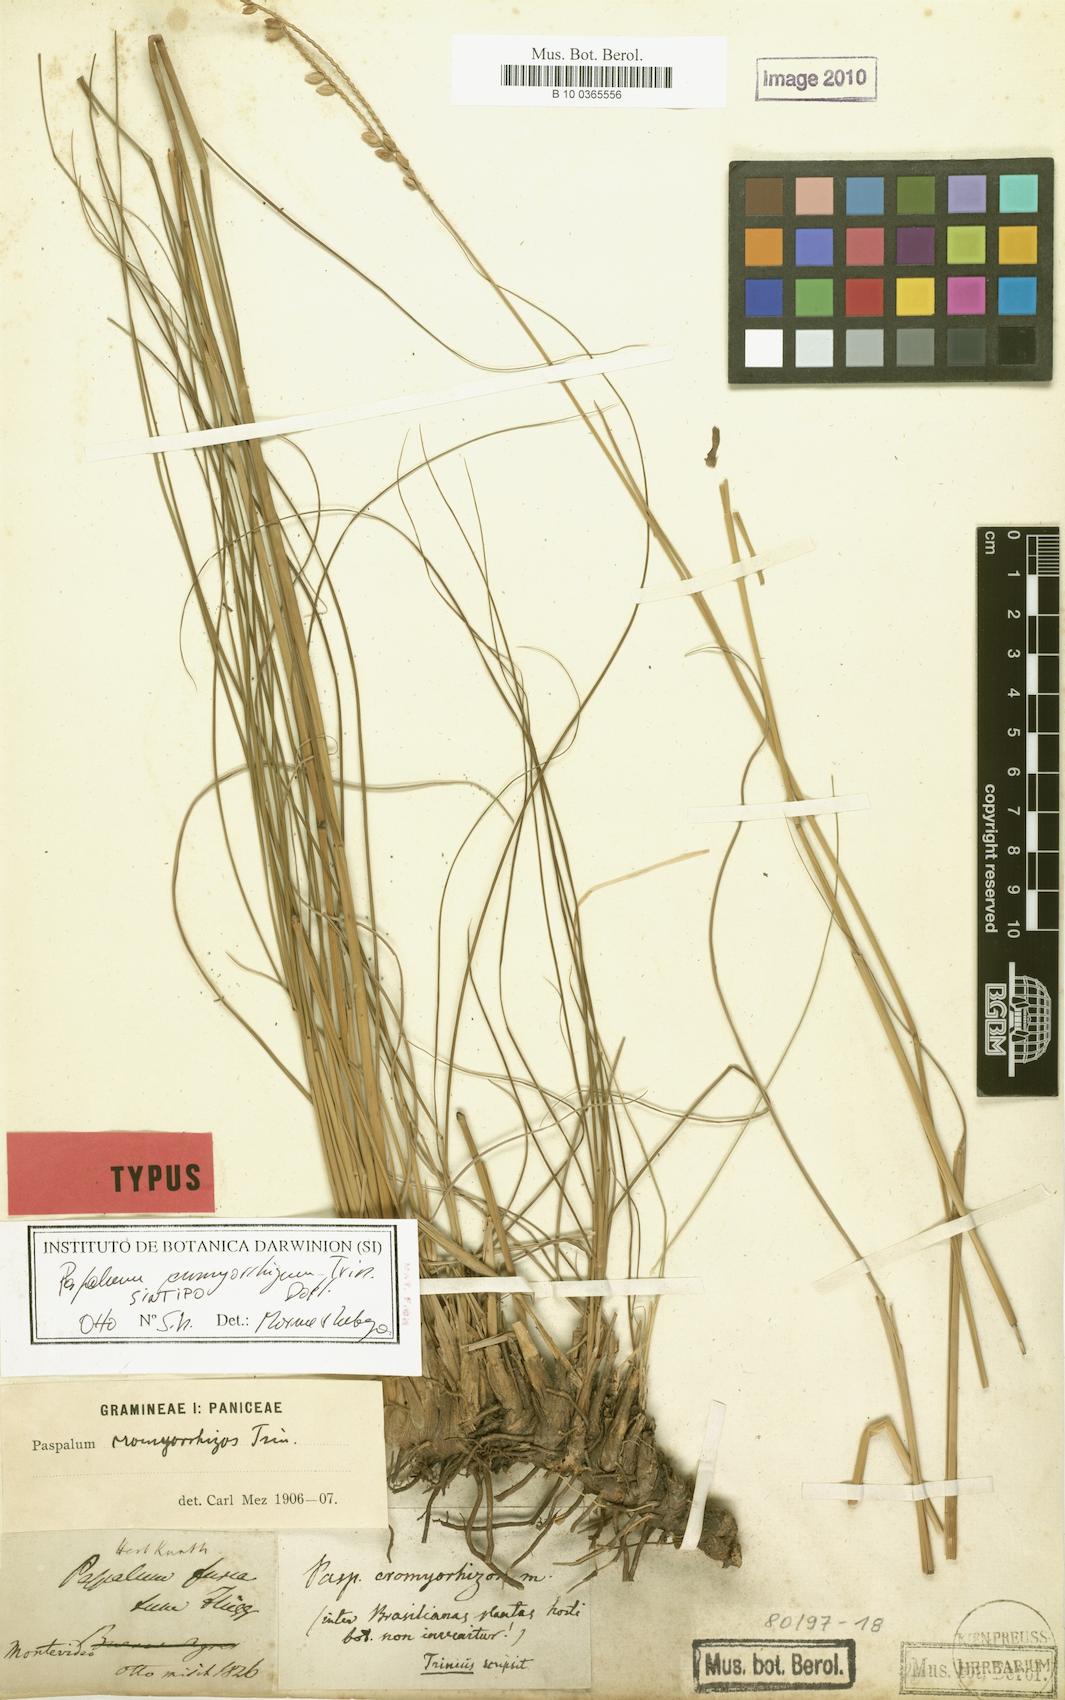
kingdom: Plantae
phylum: Tracheophyta
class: Liliopsida
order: Poales
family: Poaceae
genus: Paspalum
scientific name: Paspalum
